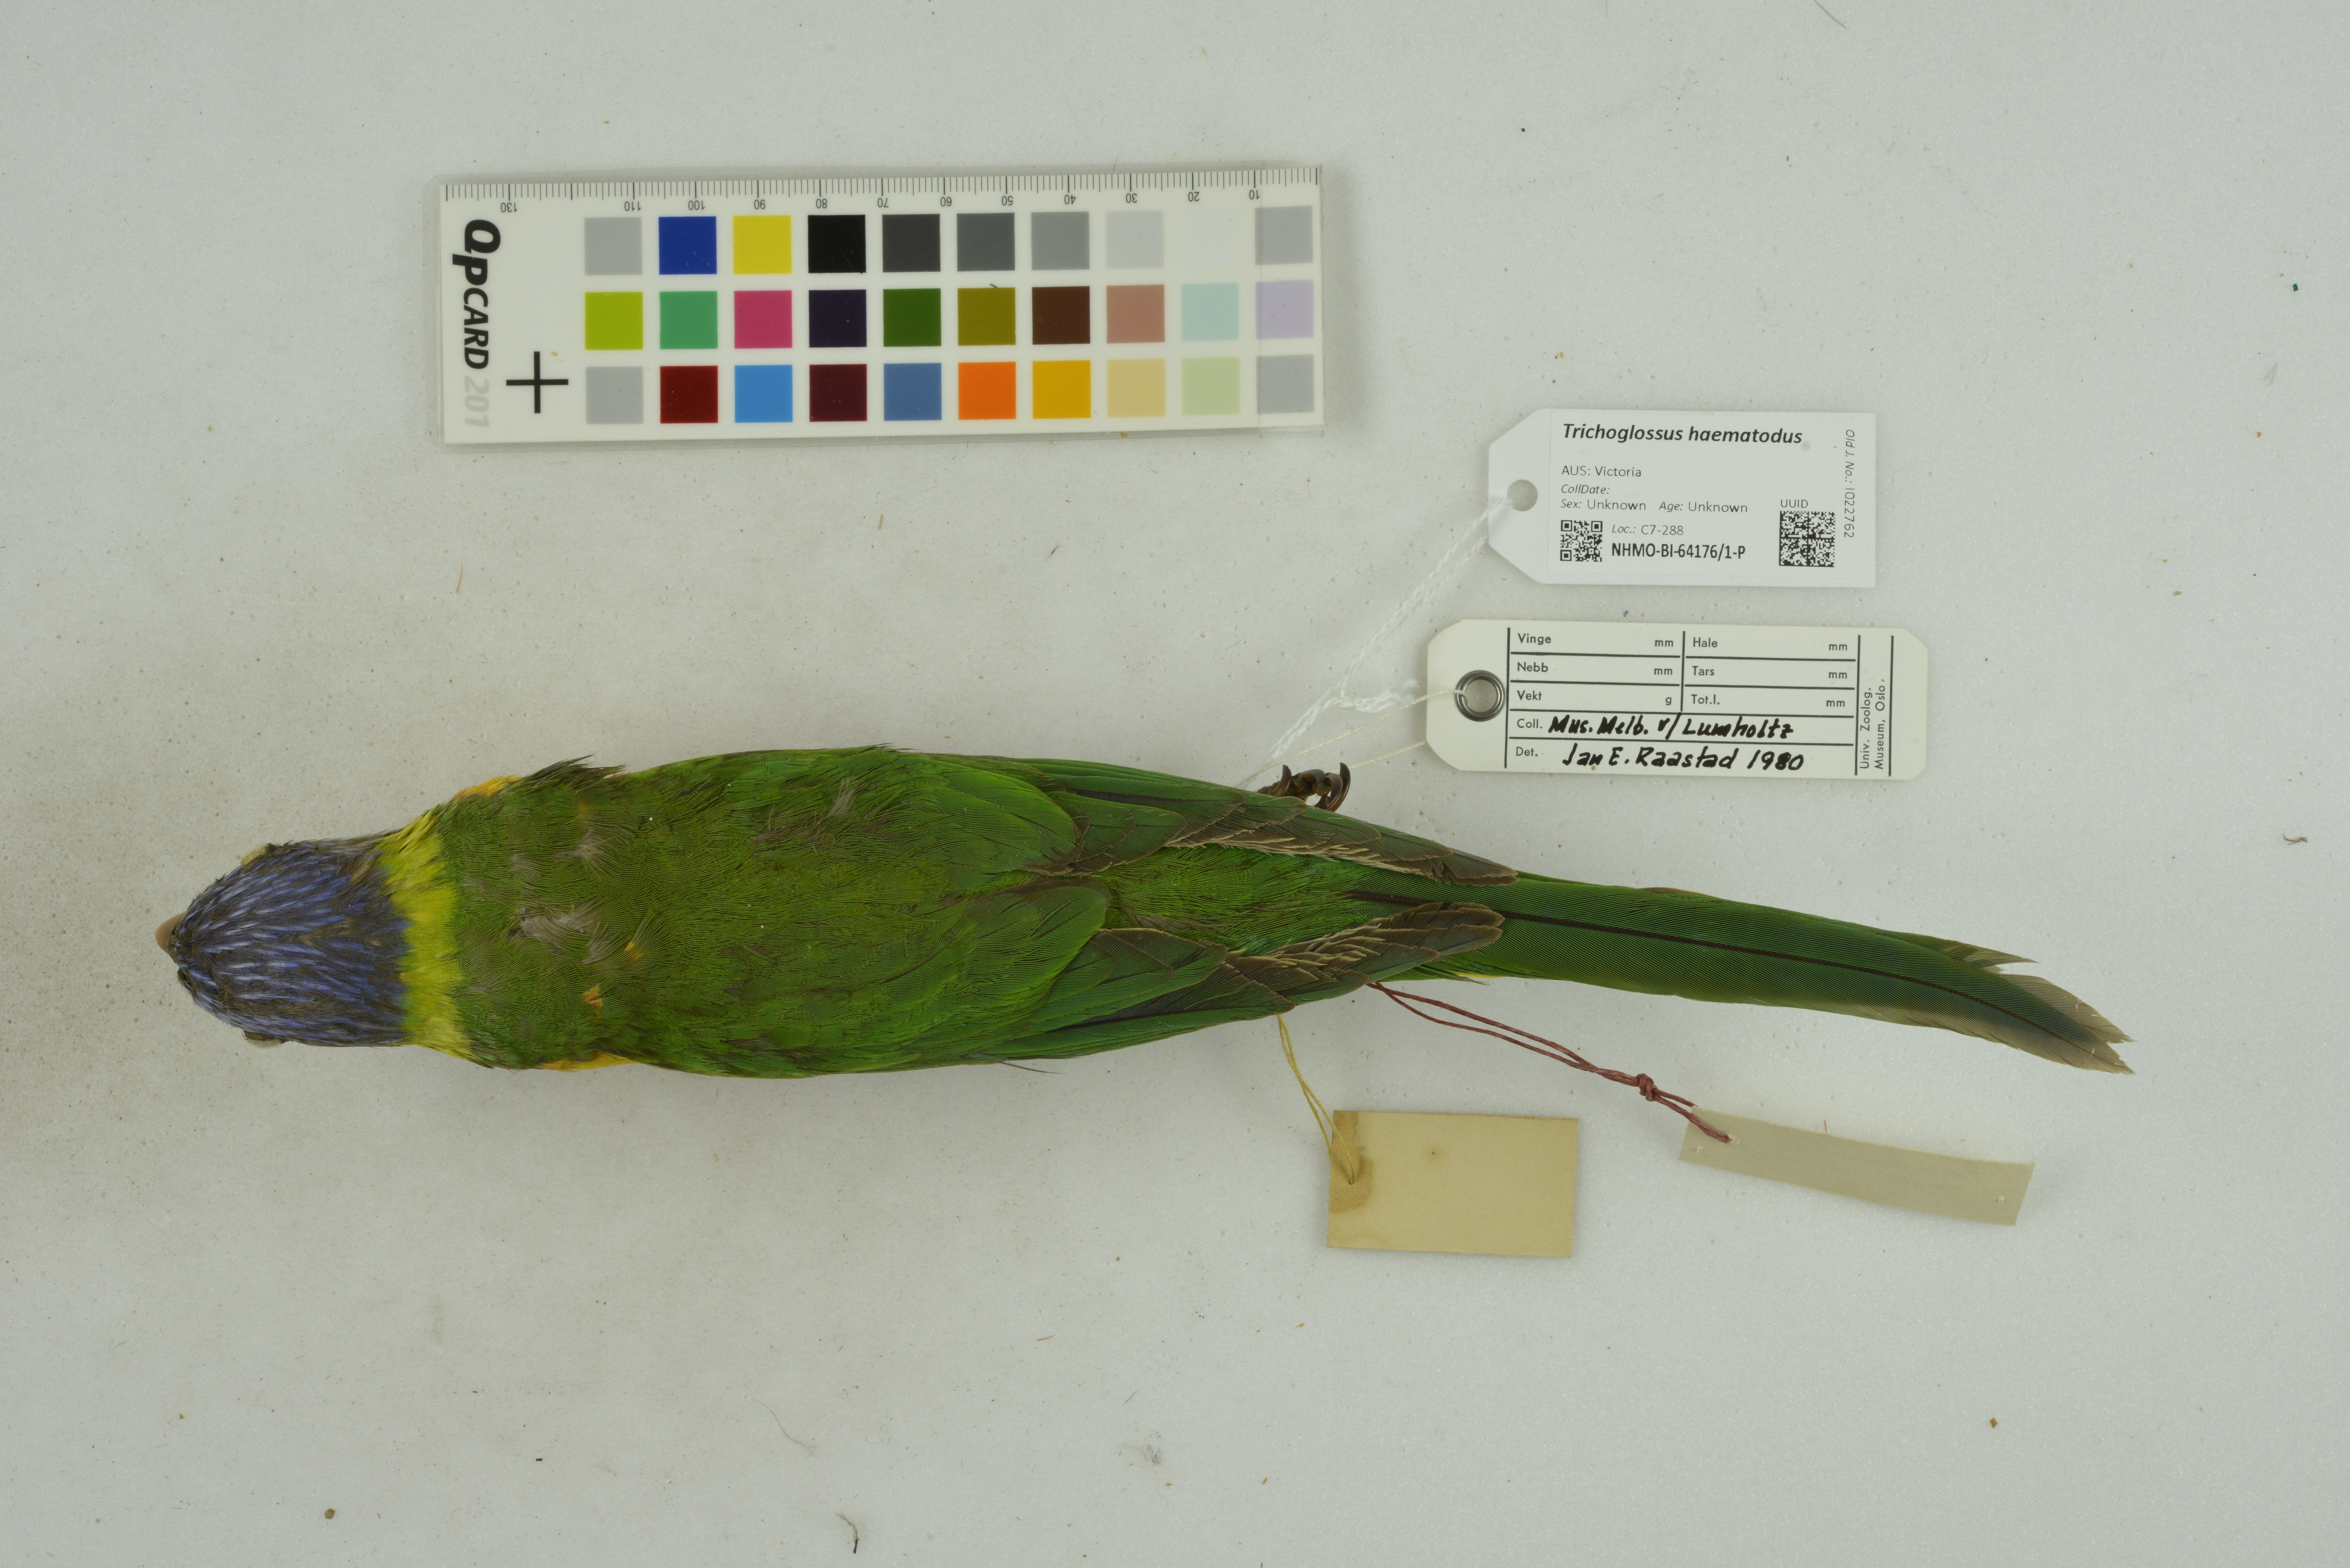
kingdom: Animalia
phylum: Chordata
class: Aves
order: Psittaciformes
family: Psittacidae
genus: Trichoglossus
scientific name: Trichoglossus haematodus
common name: Coconut lorikeet
